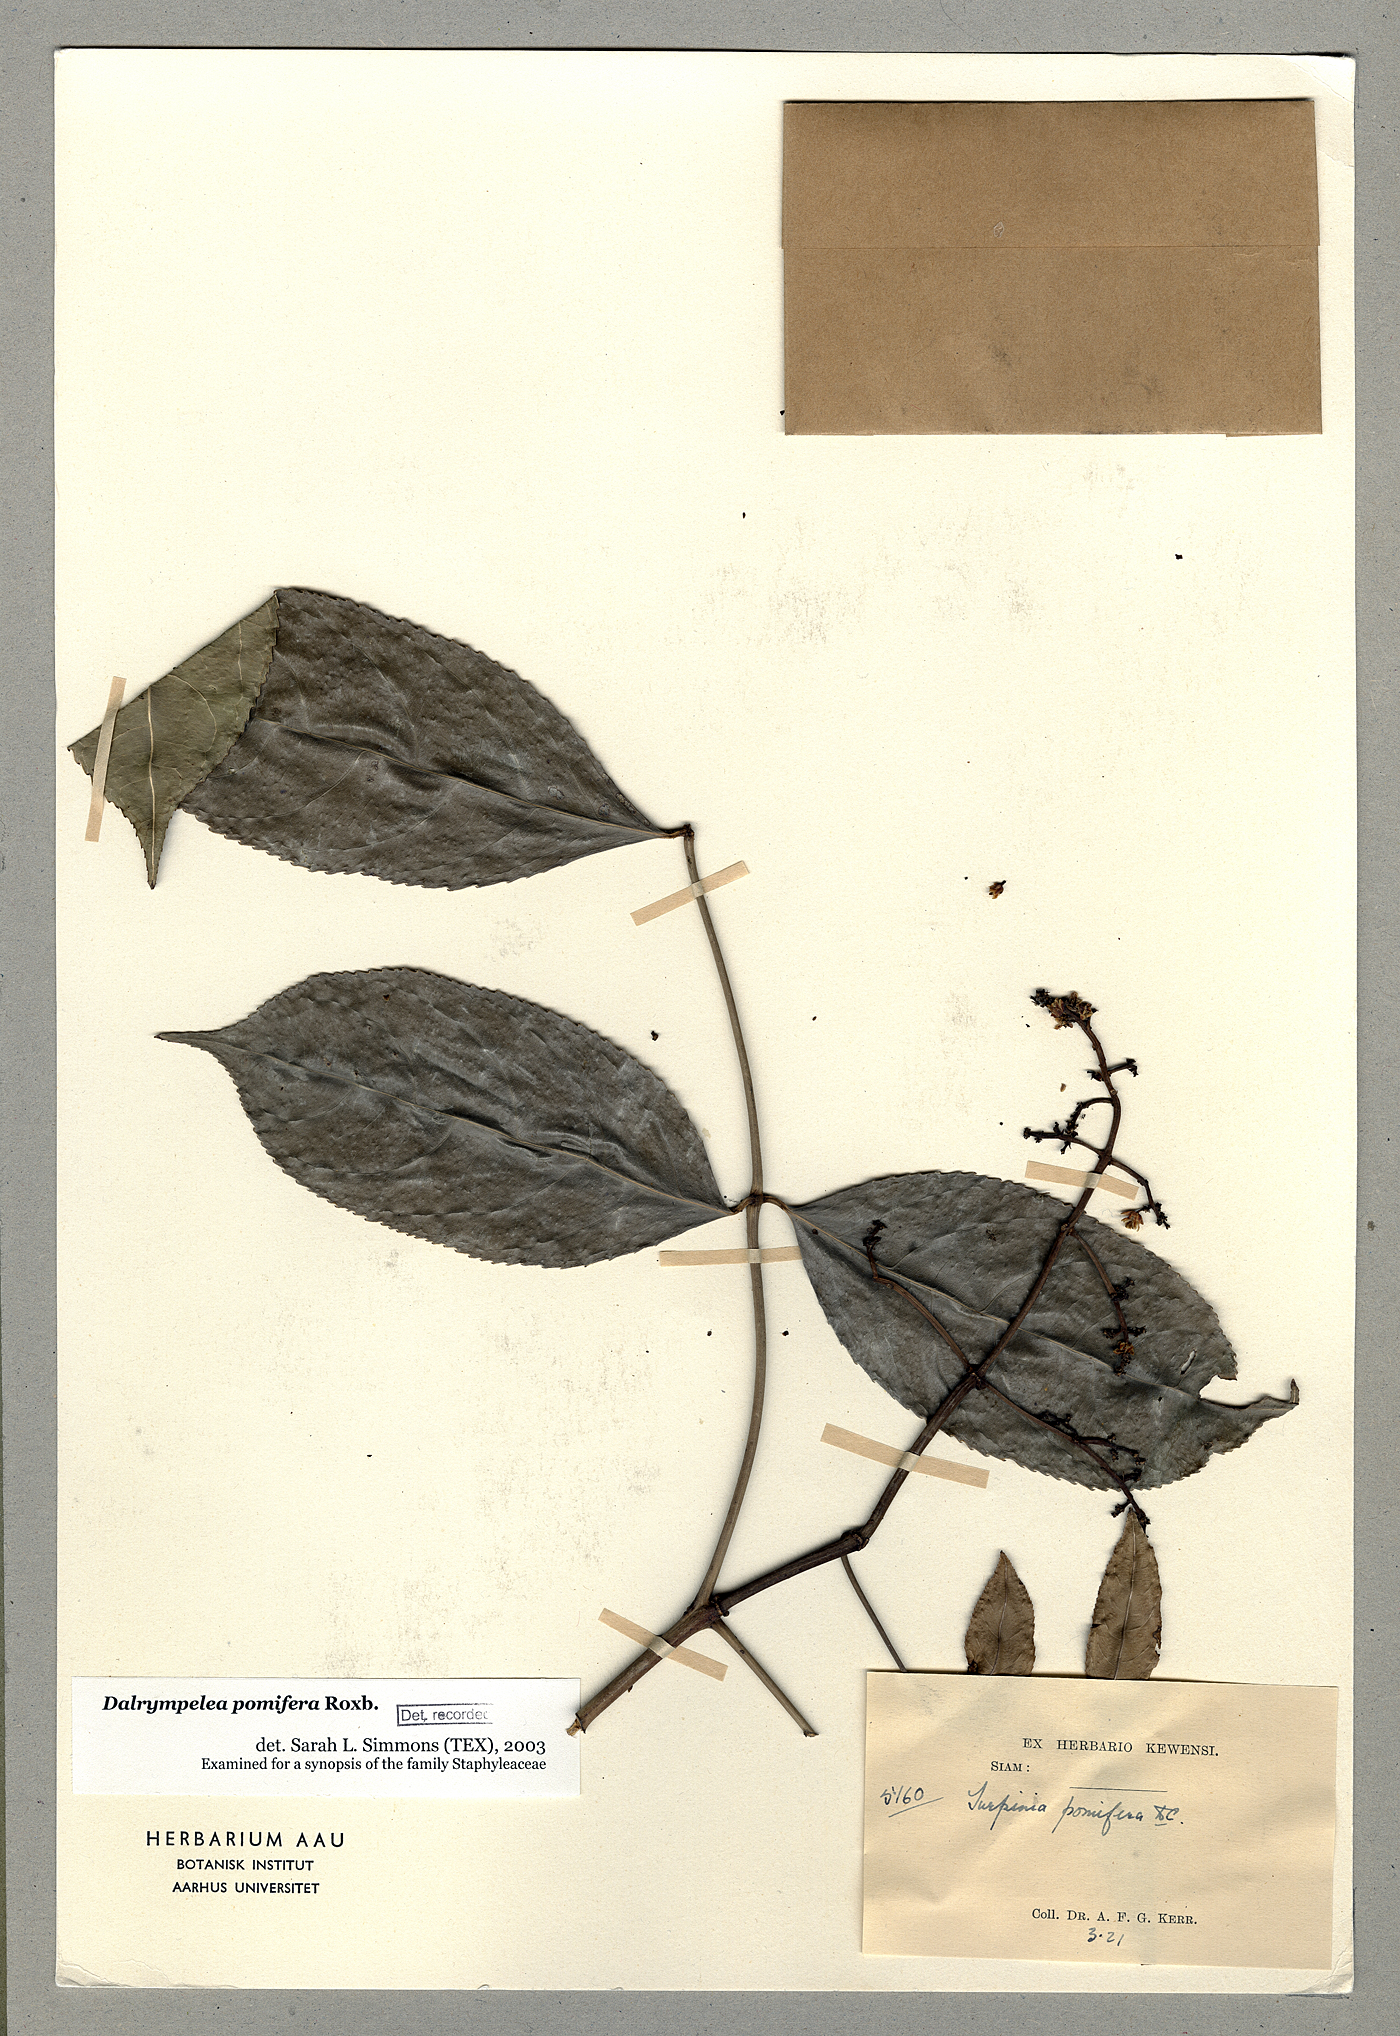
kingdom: Plantae
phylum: Tracheophyta
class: Magnoliopsida
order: Crossosomatales
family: Staphyleaceae
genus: Dalrympelea
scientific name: Dalrympelea pomifera
